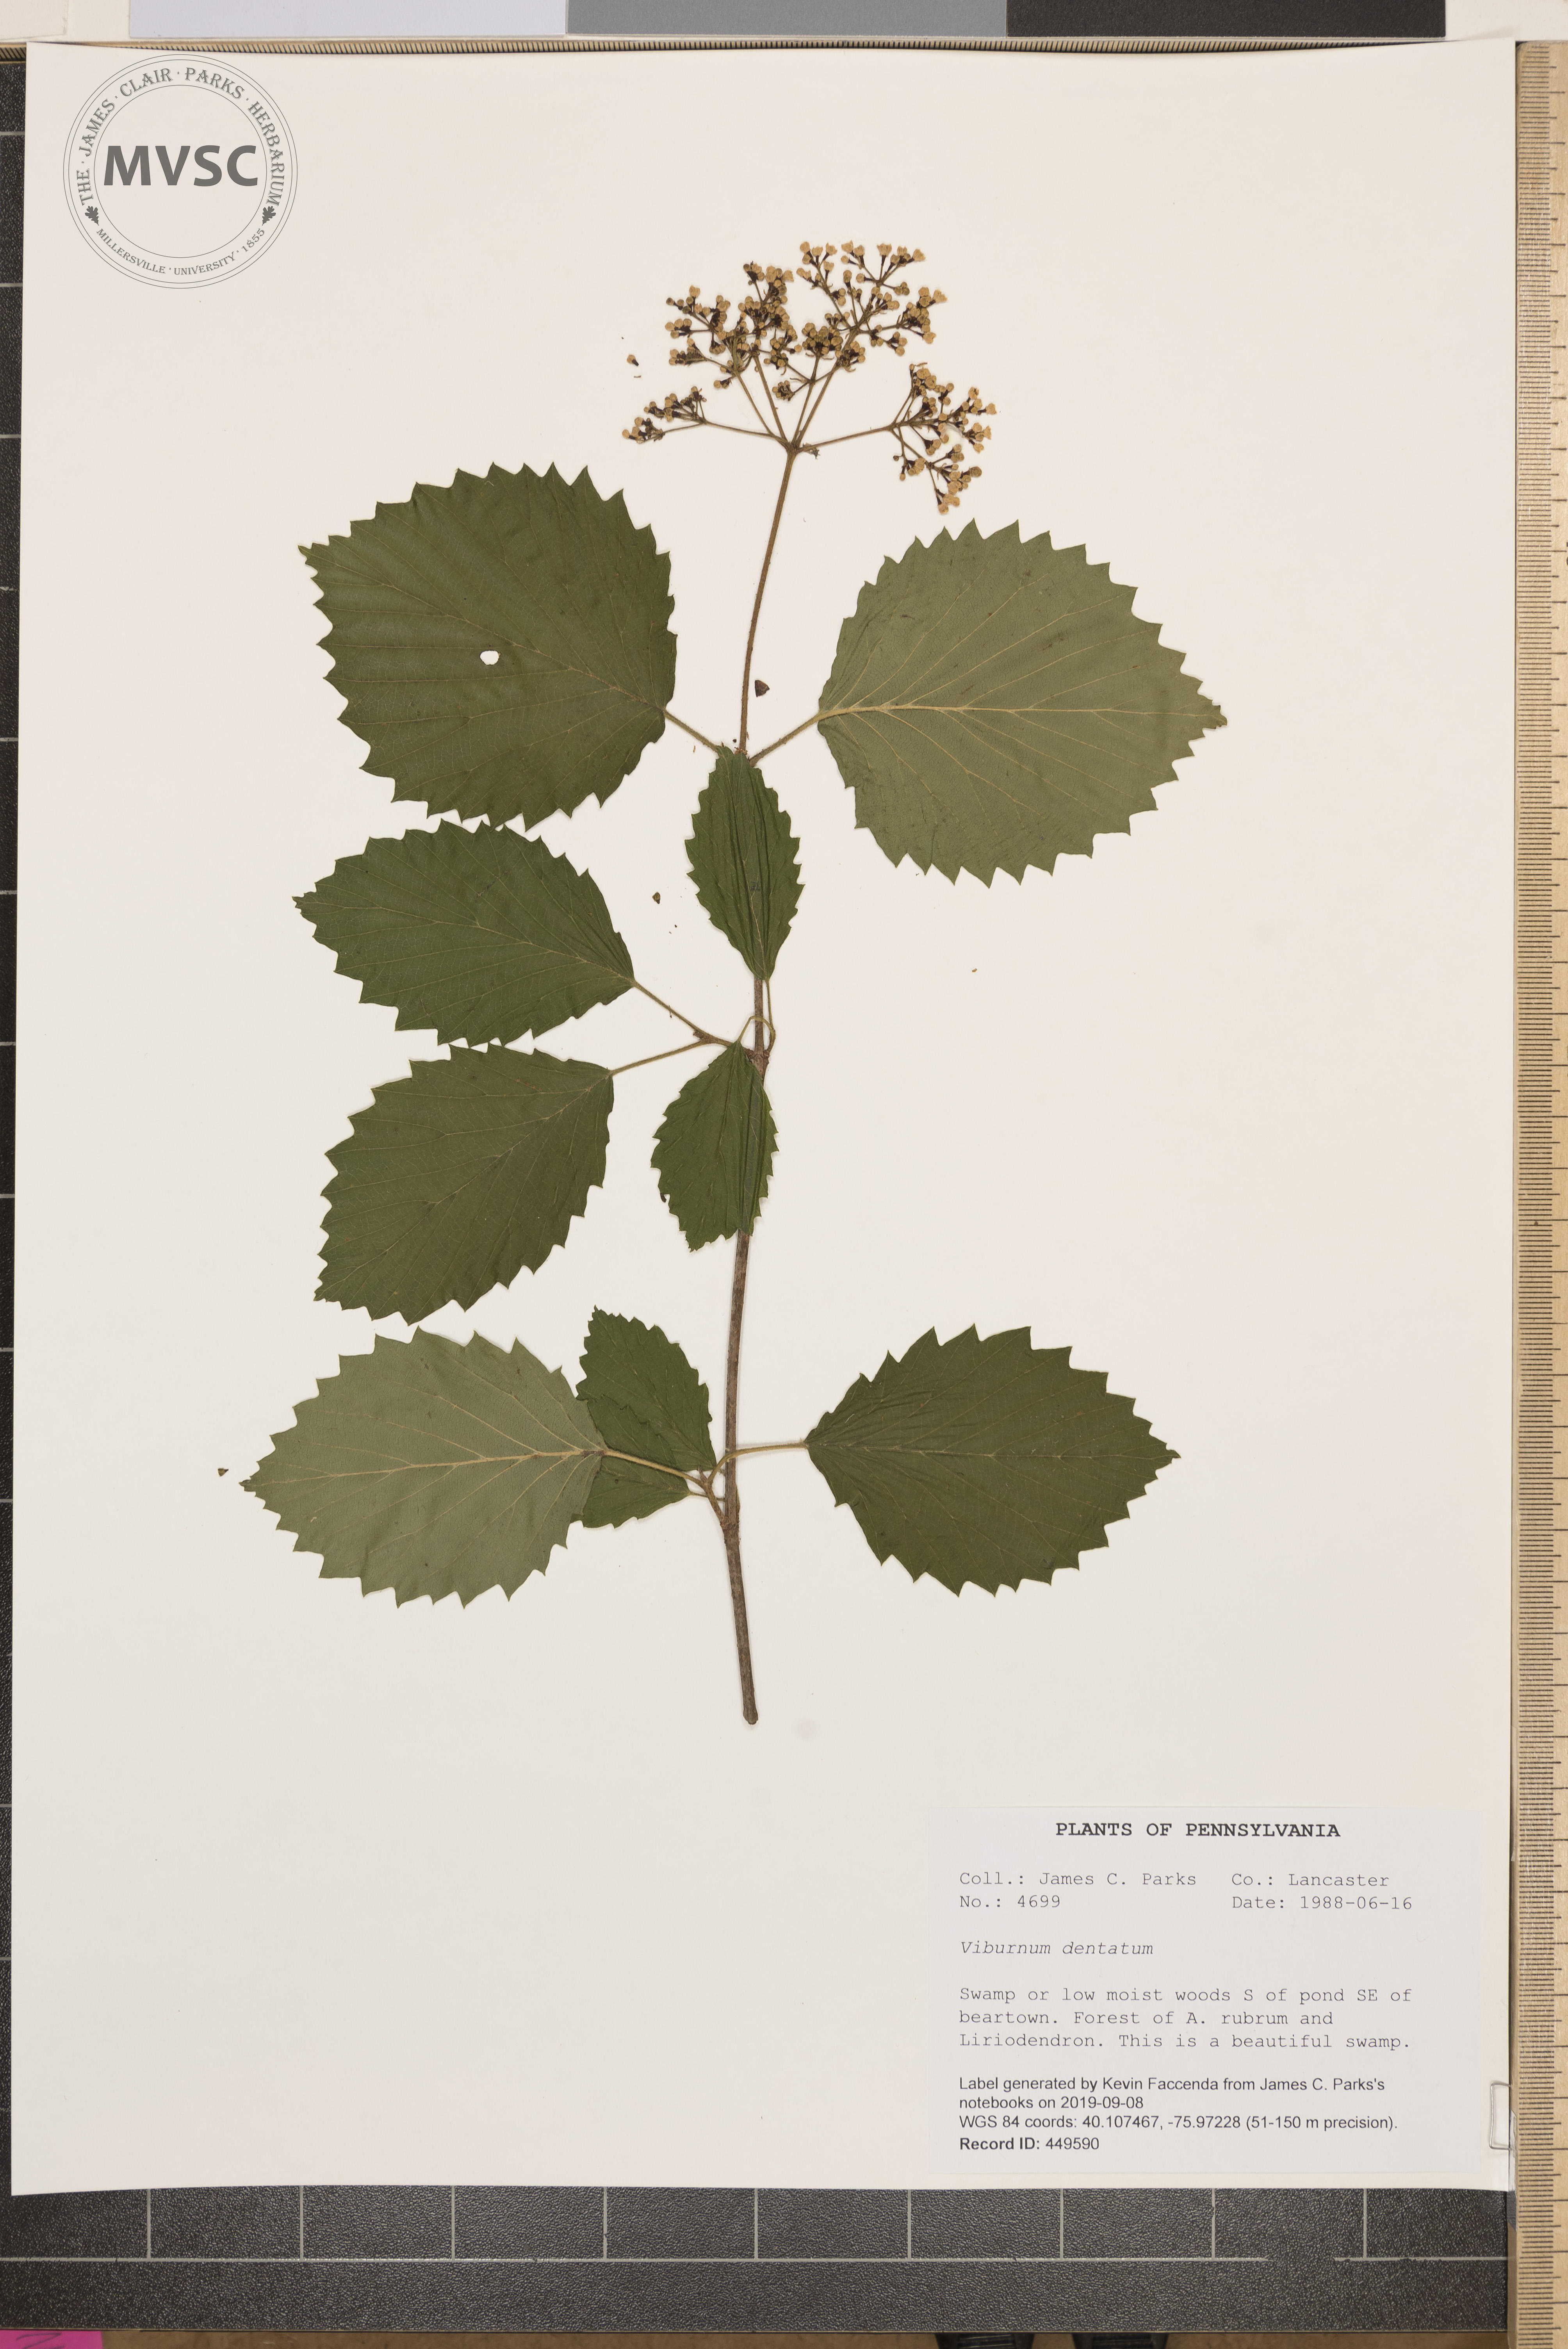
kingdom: Plantae
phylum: Tracheophyta
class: Magnoliopsida
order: Dipsacales
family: Viburnaceae
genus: Viburnum
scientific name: Viburnum dentatum
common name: Arrow-wood
